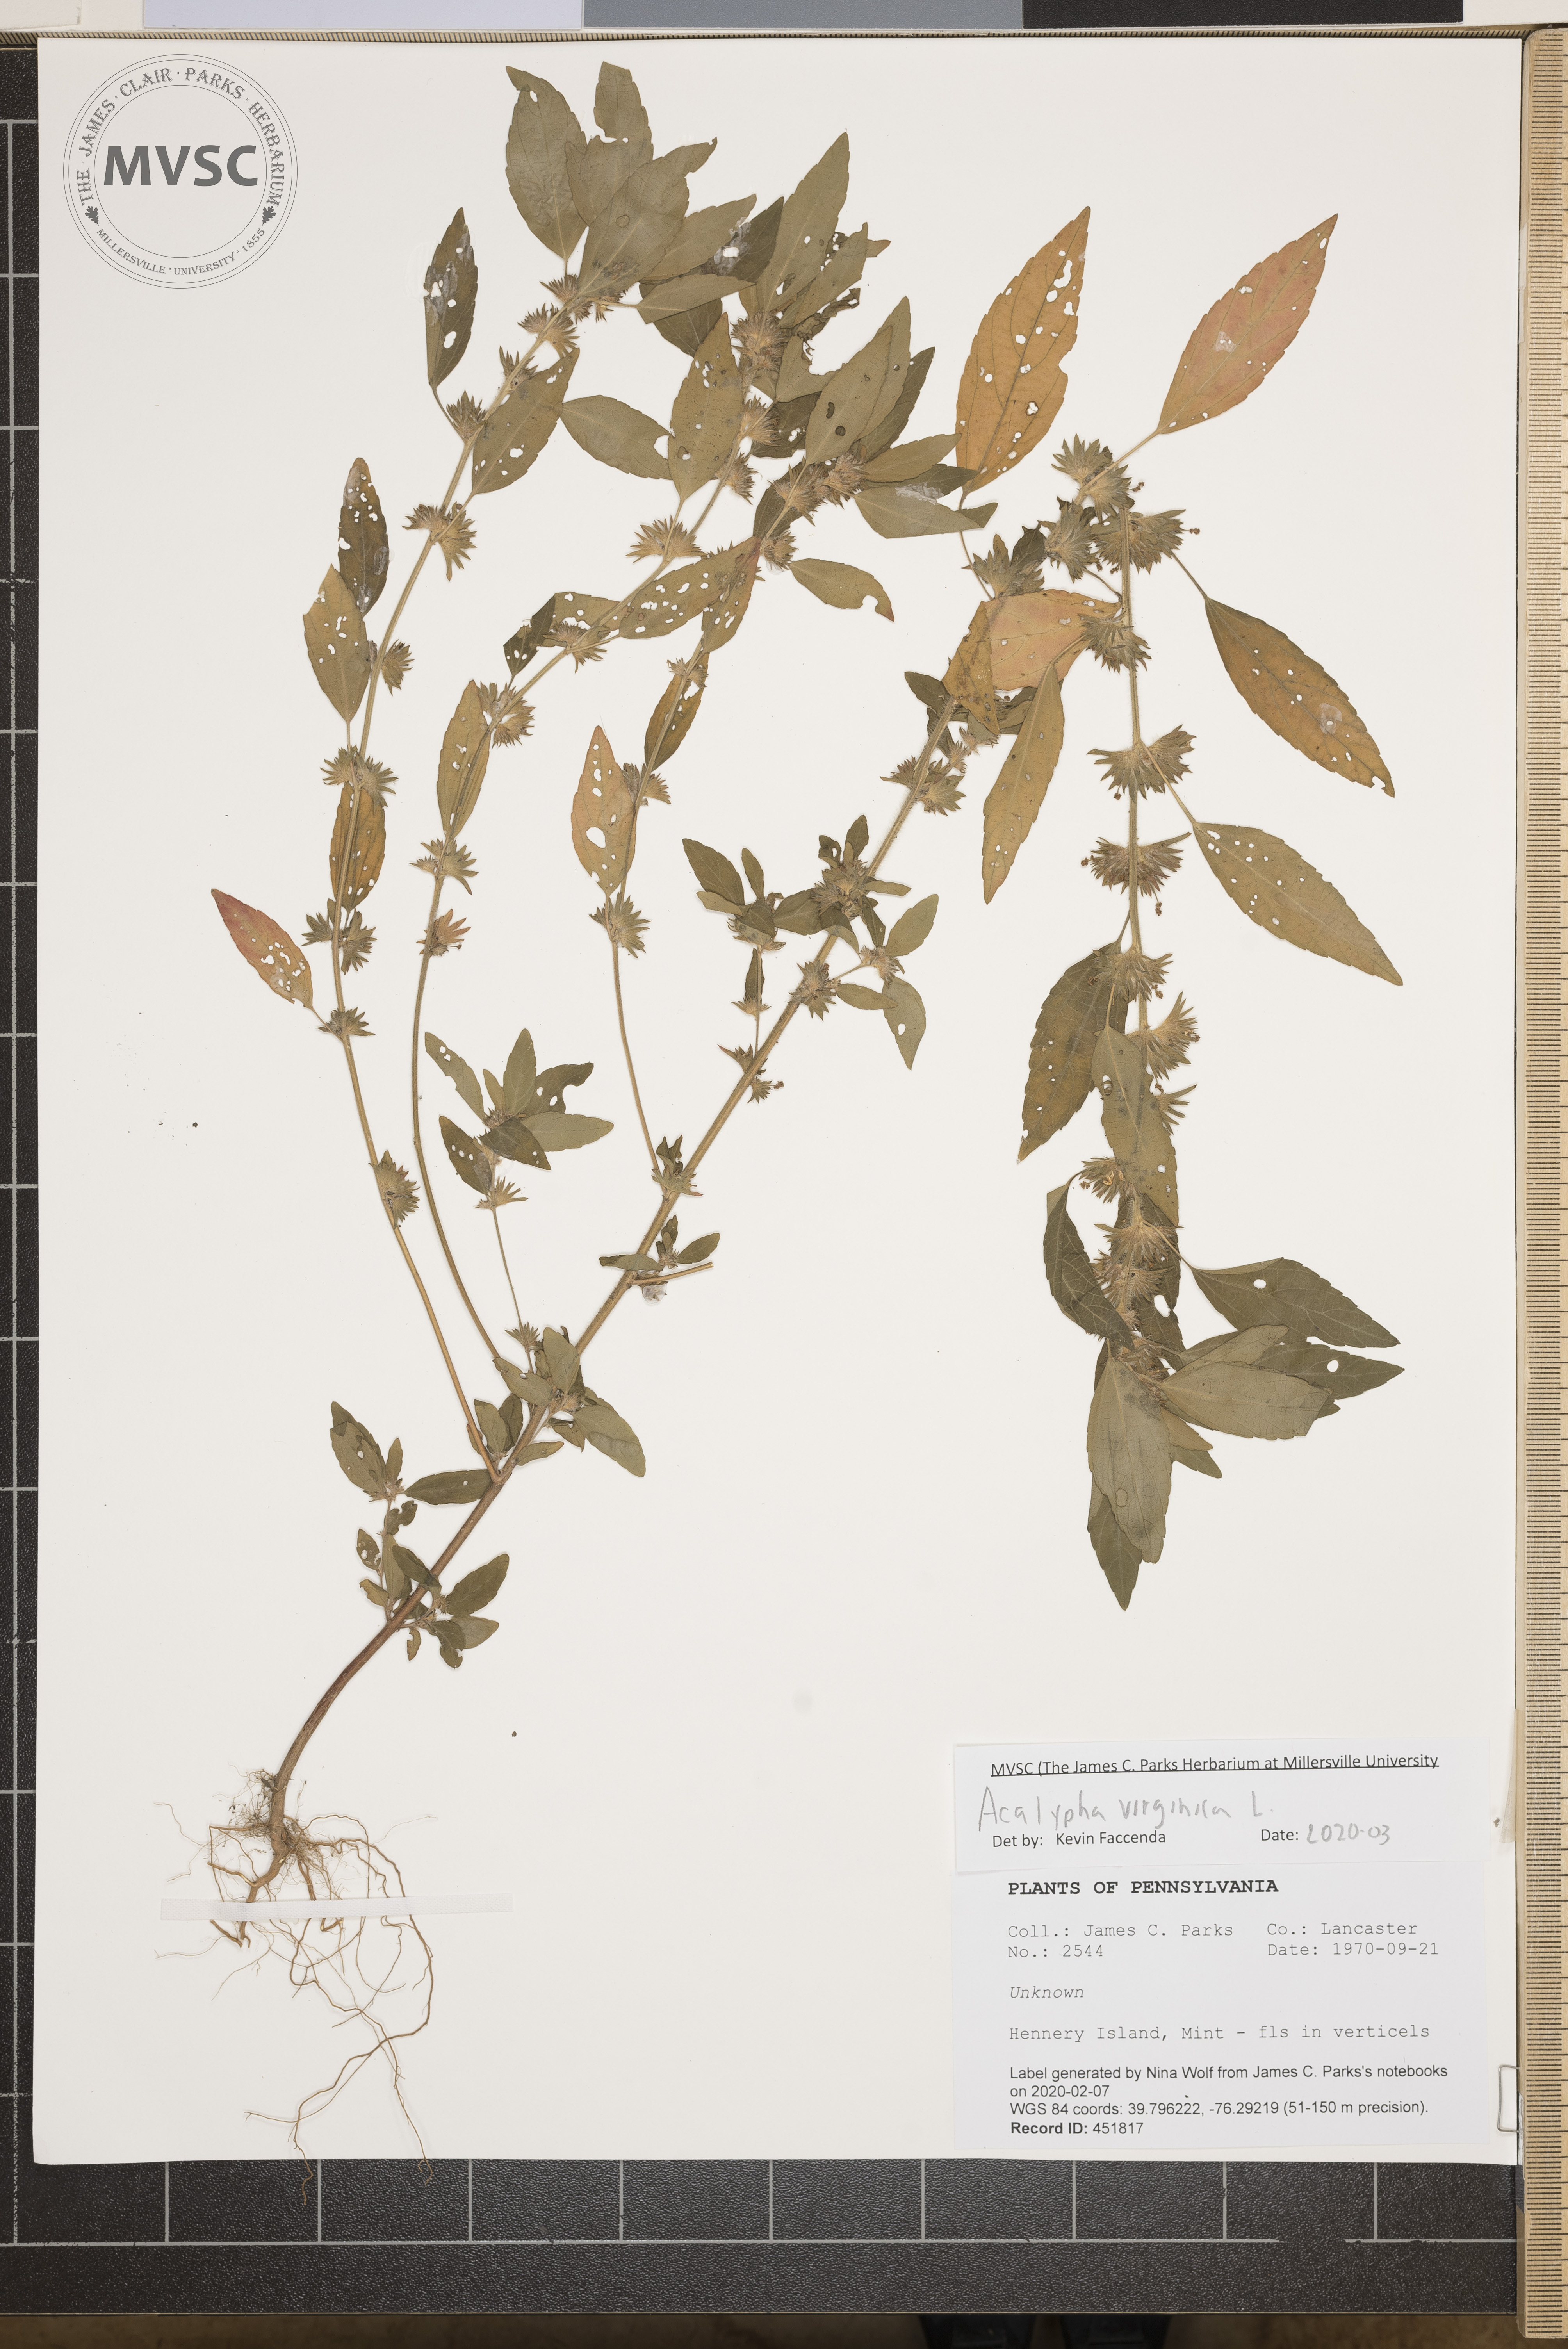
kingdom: Plantae
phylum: Tracheophyta
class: Magnoliopsida
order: Malpighiales
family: Euphorbiaceae
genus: Acalypha
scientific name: Acalypha virginica
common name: Virginia copperleaf
